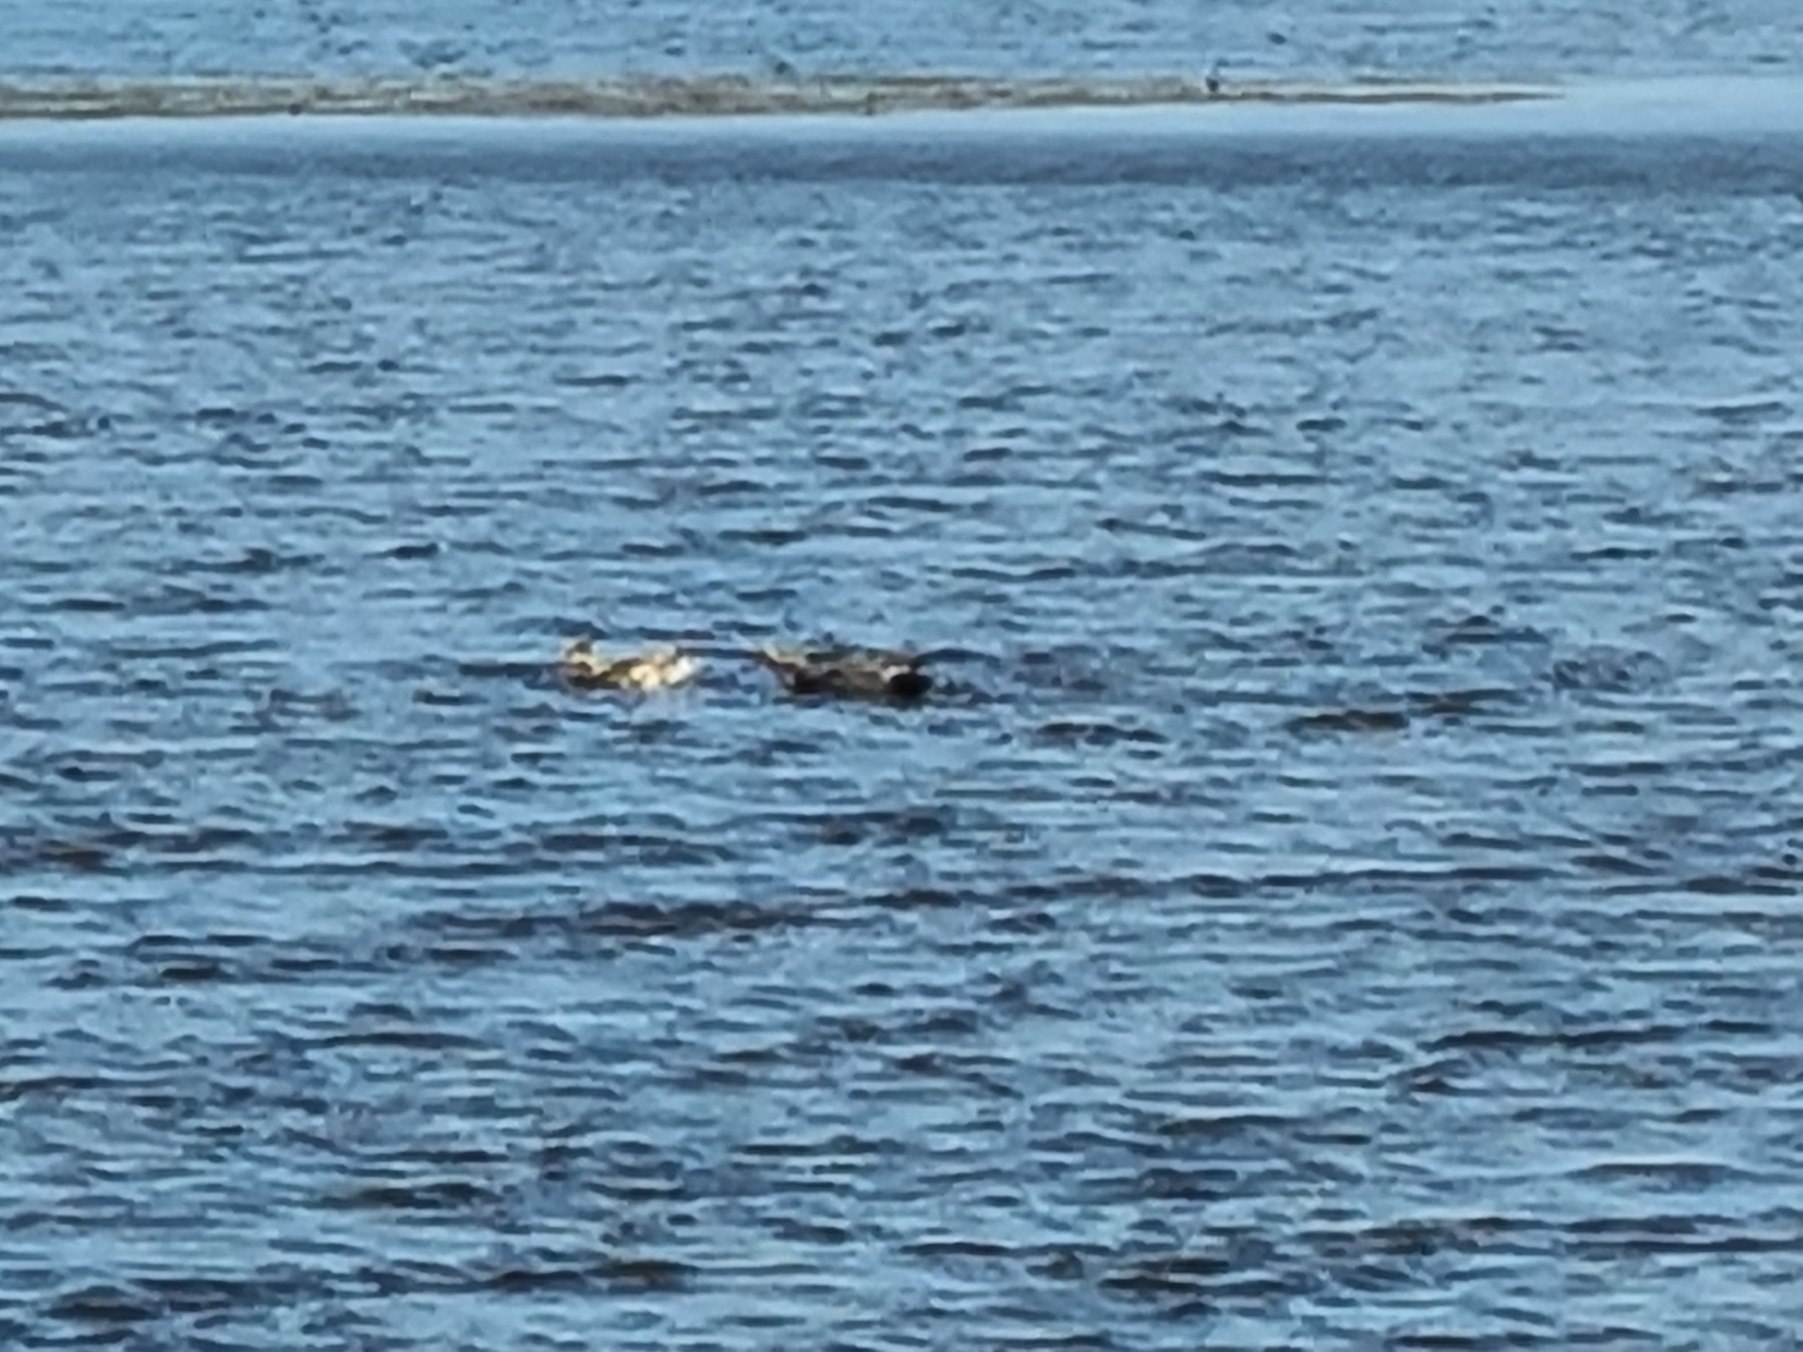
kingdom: Animalia
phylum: Chordata
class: Aves
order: Anseriformes
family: Anatidae
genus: Mareca
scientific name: Mareca strepera
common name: Knarand
